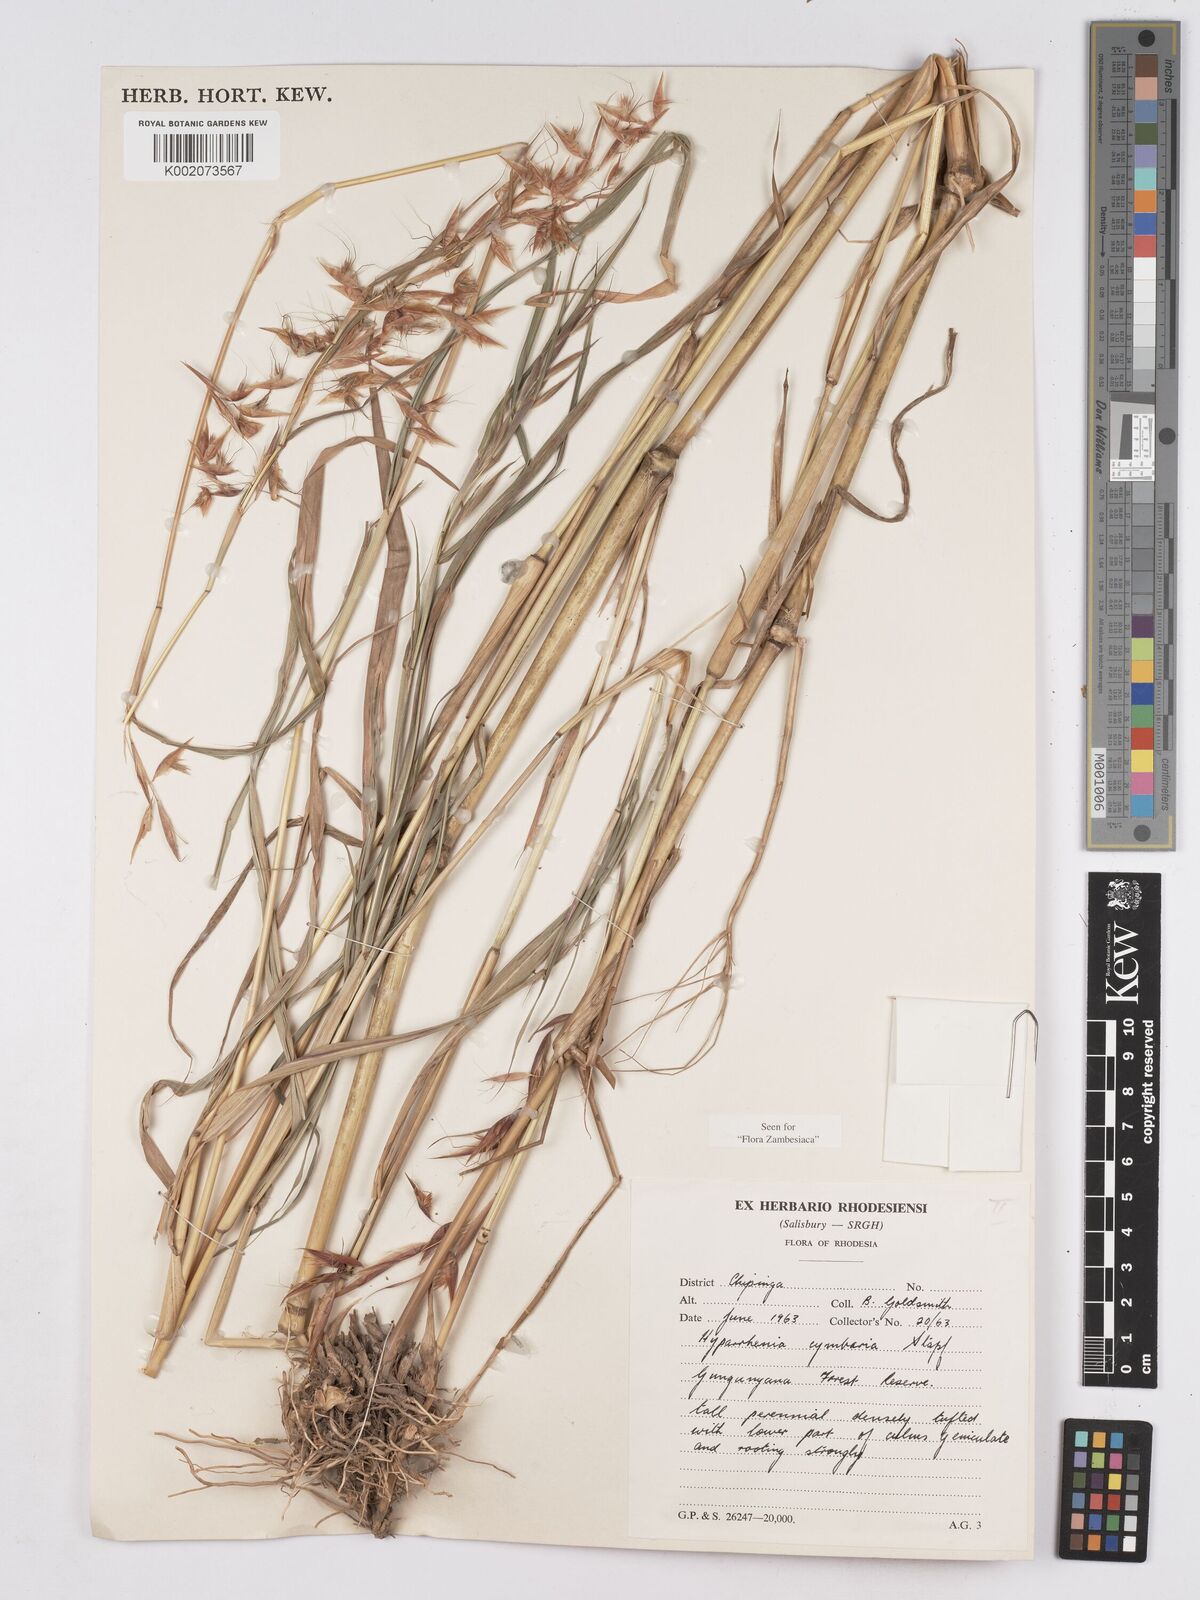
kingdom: Plantae
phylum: Tracheophyta
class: Liliopsida
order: Poales
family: Poaceae
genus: Hyparrhenia
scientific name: Hyparrhenia cymbaria
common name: Boat thatching grass
